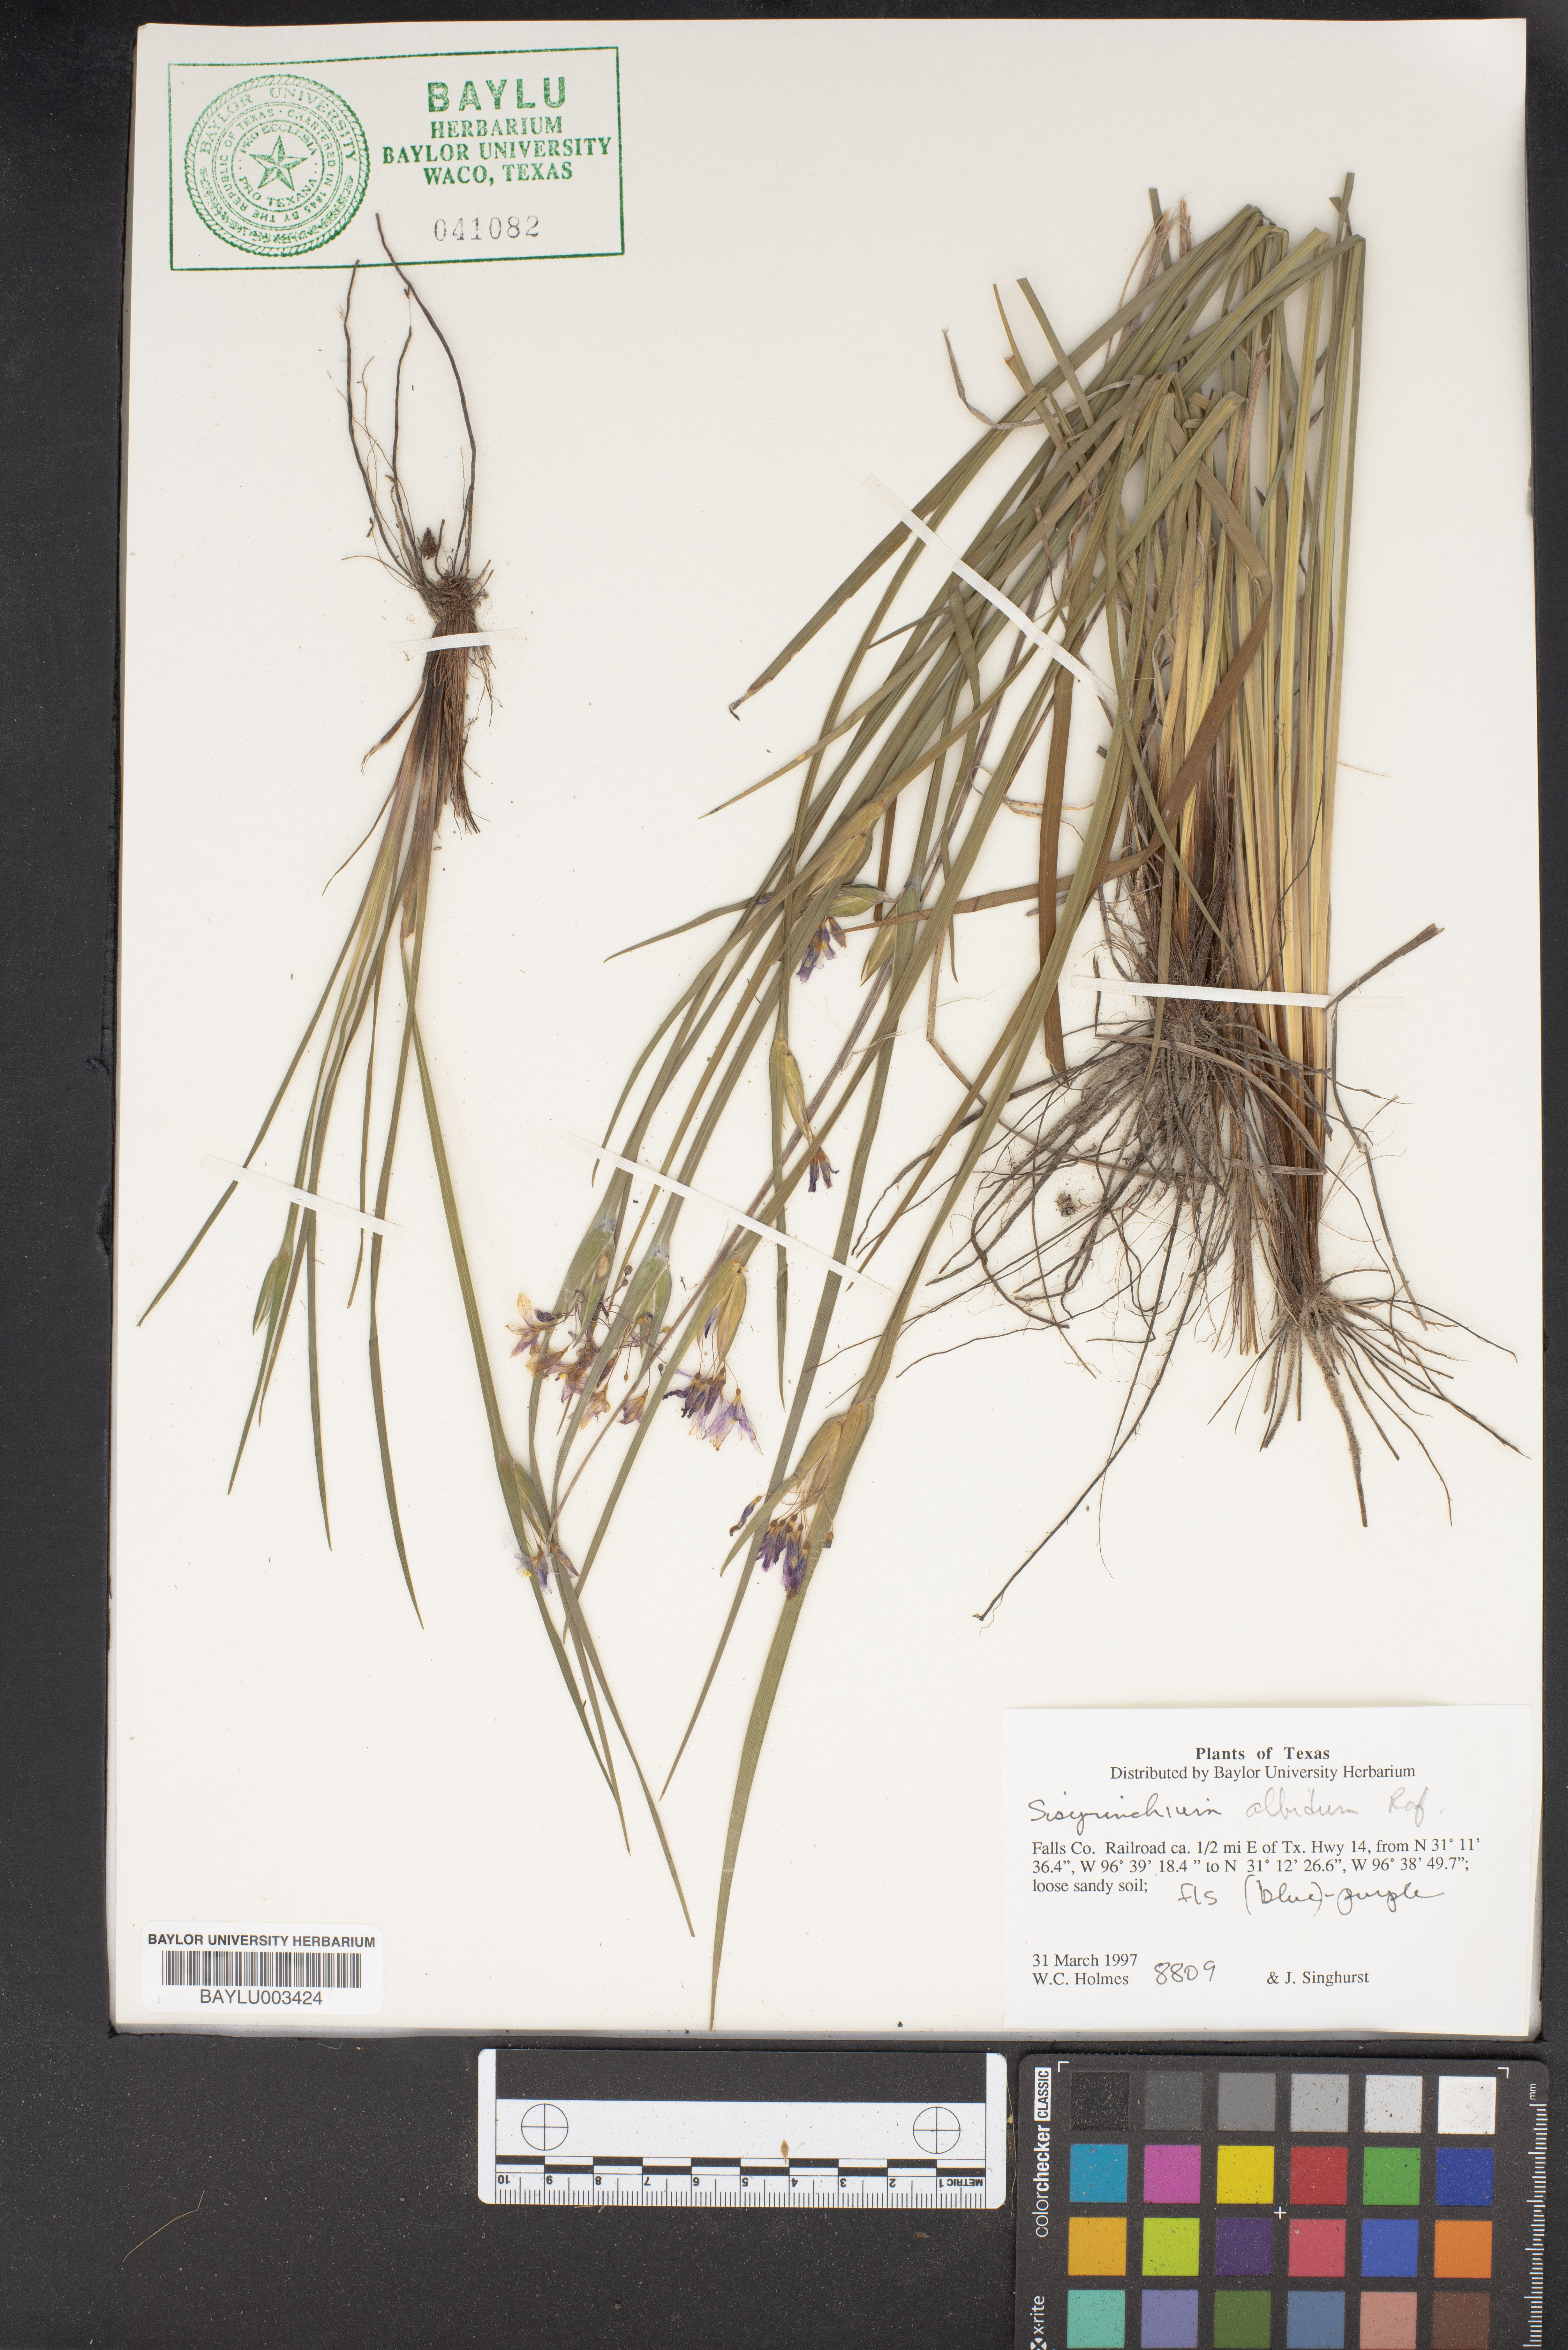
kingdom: Plantae
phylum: Tracheophyta
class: Liliopsida
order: Asparagales
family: Iridaceae
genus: Sisyrinchium
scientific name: Sisyrinchium albidum
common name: Pale blue-eyed-grass
